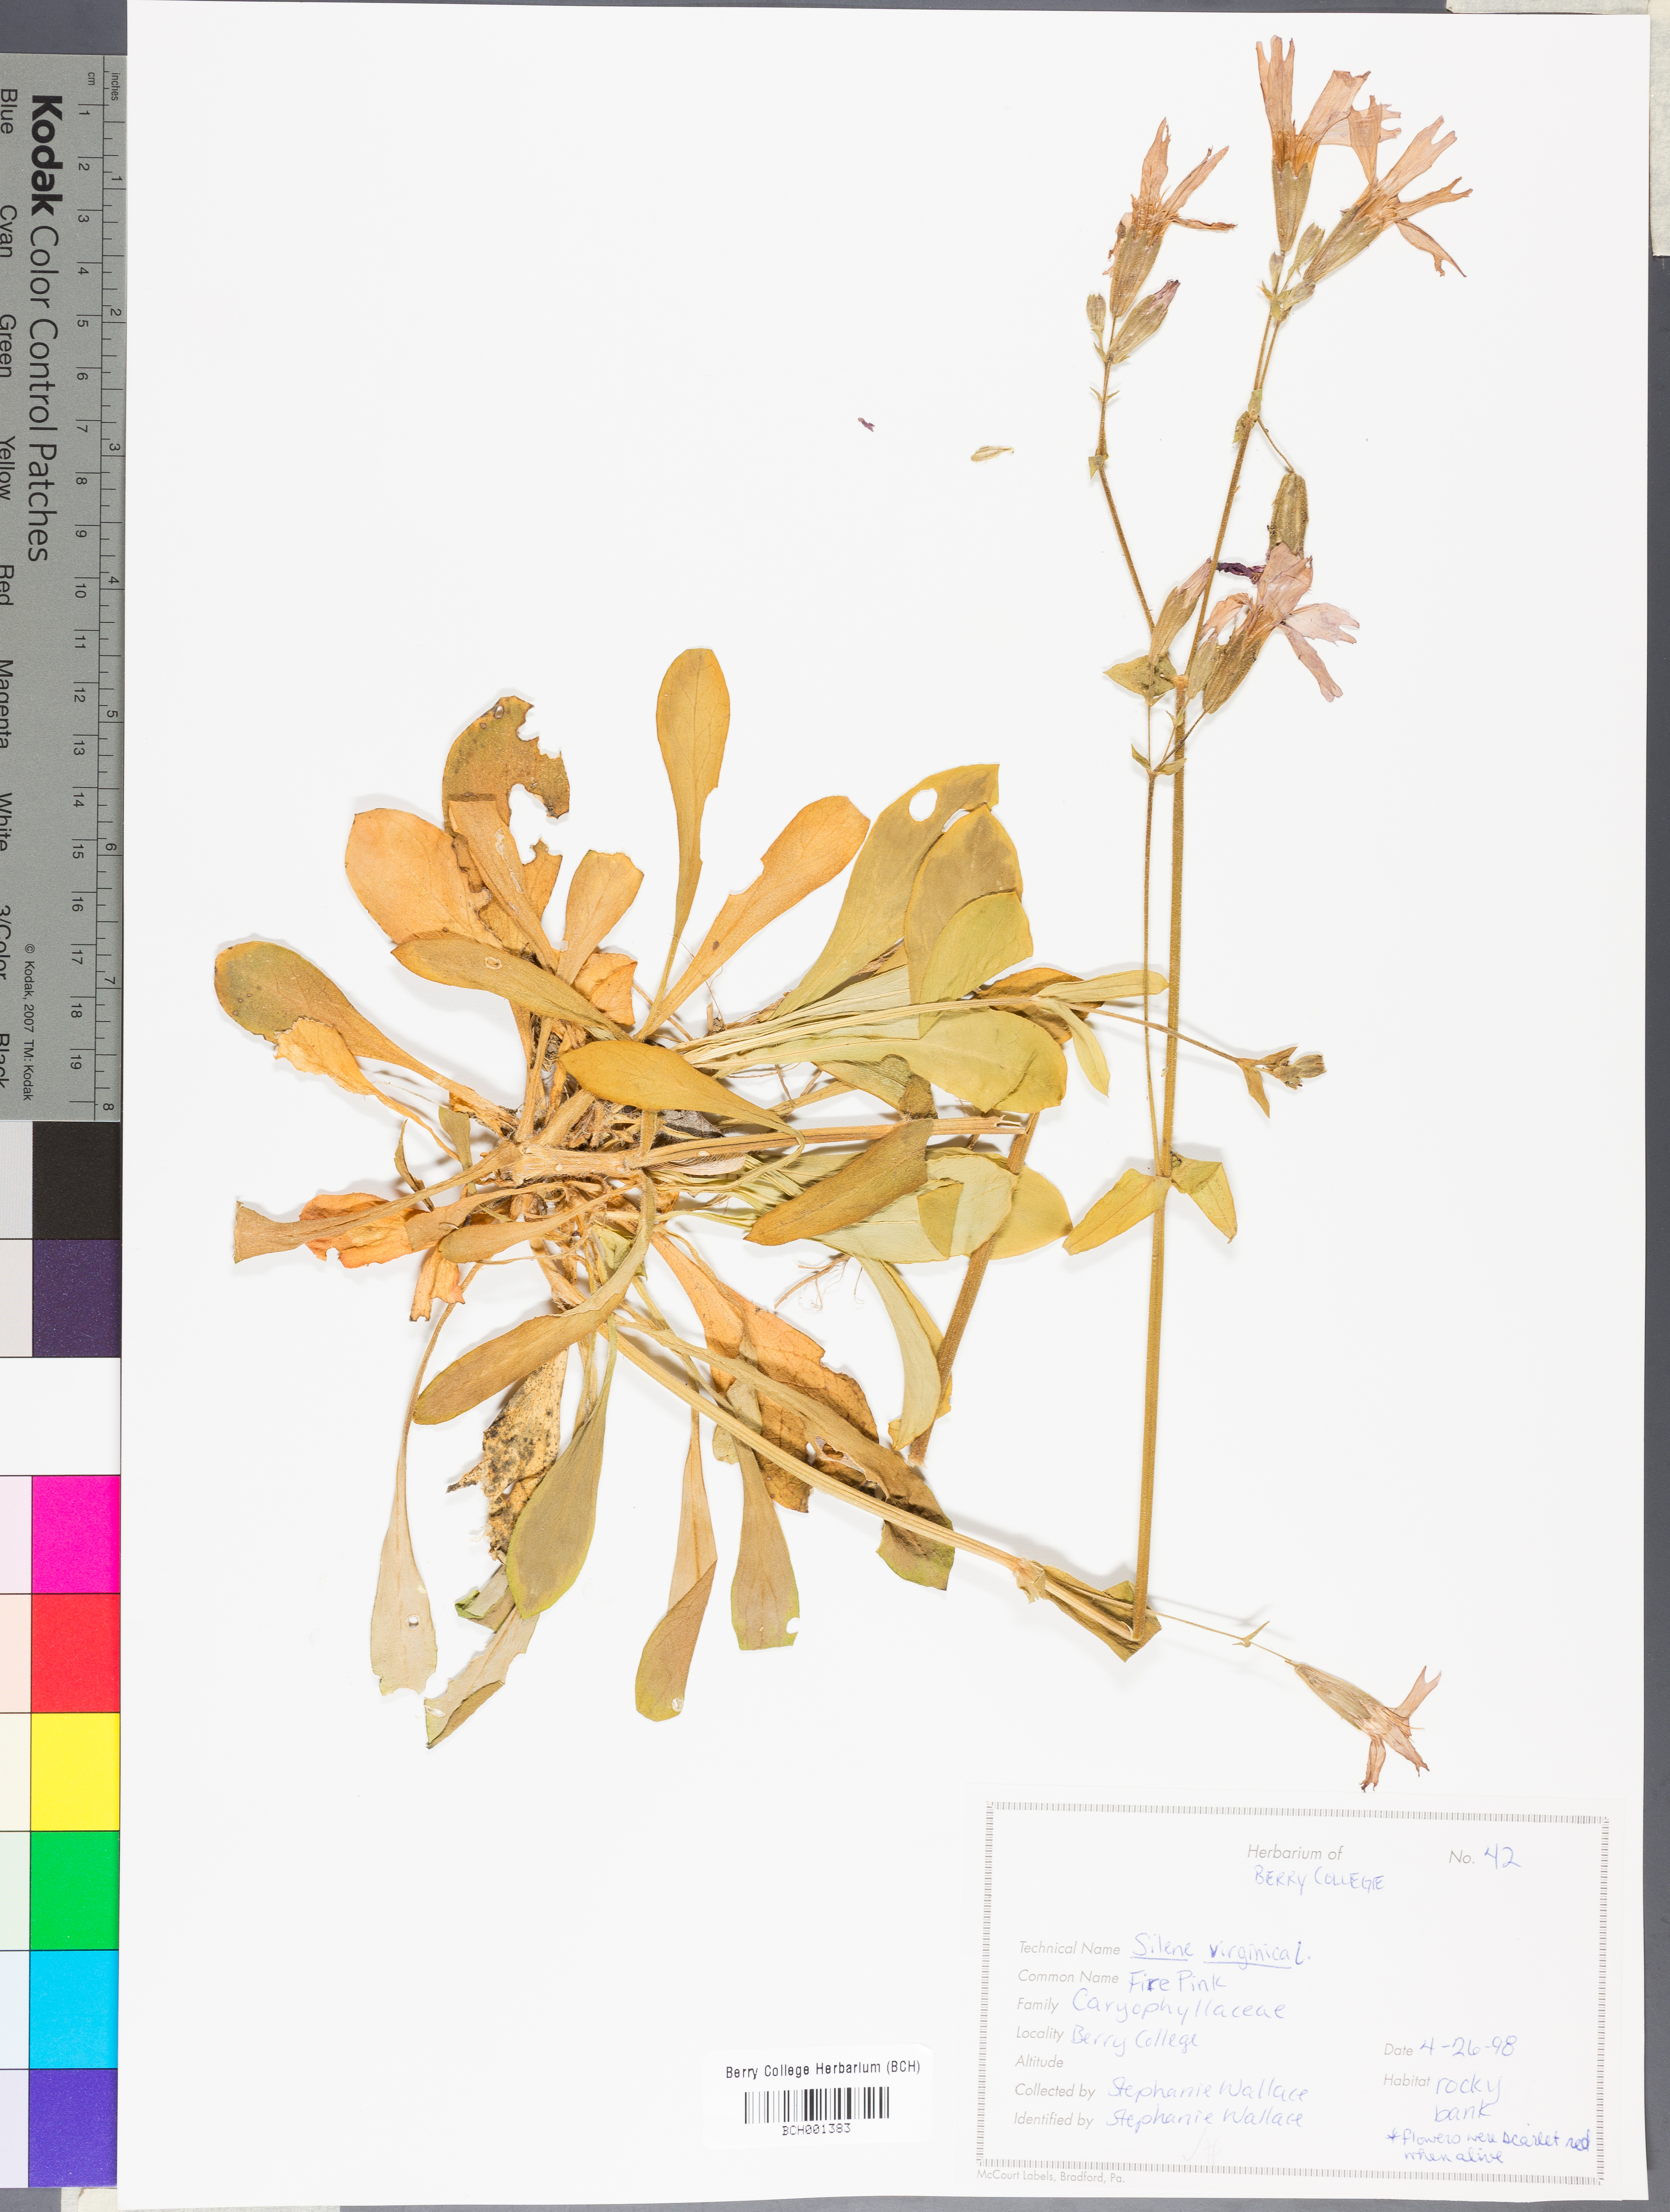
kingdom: Plantae
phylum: Tracheophyta
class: Magnoliopsida
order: Caryophyllales
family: Caryophyllaceae
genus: Silene
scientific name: Silene virginica
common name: Fire-pink
